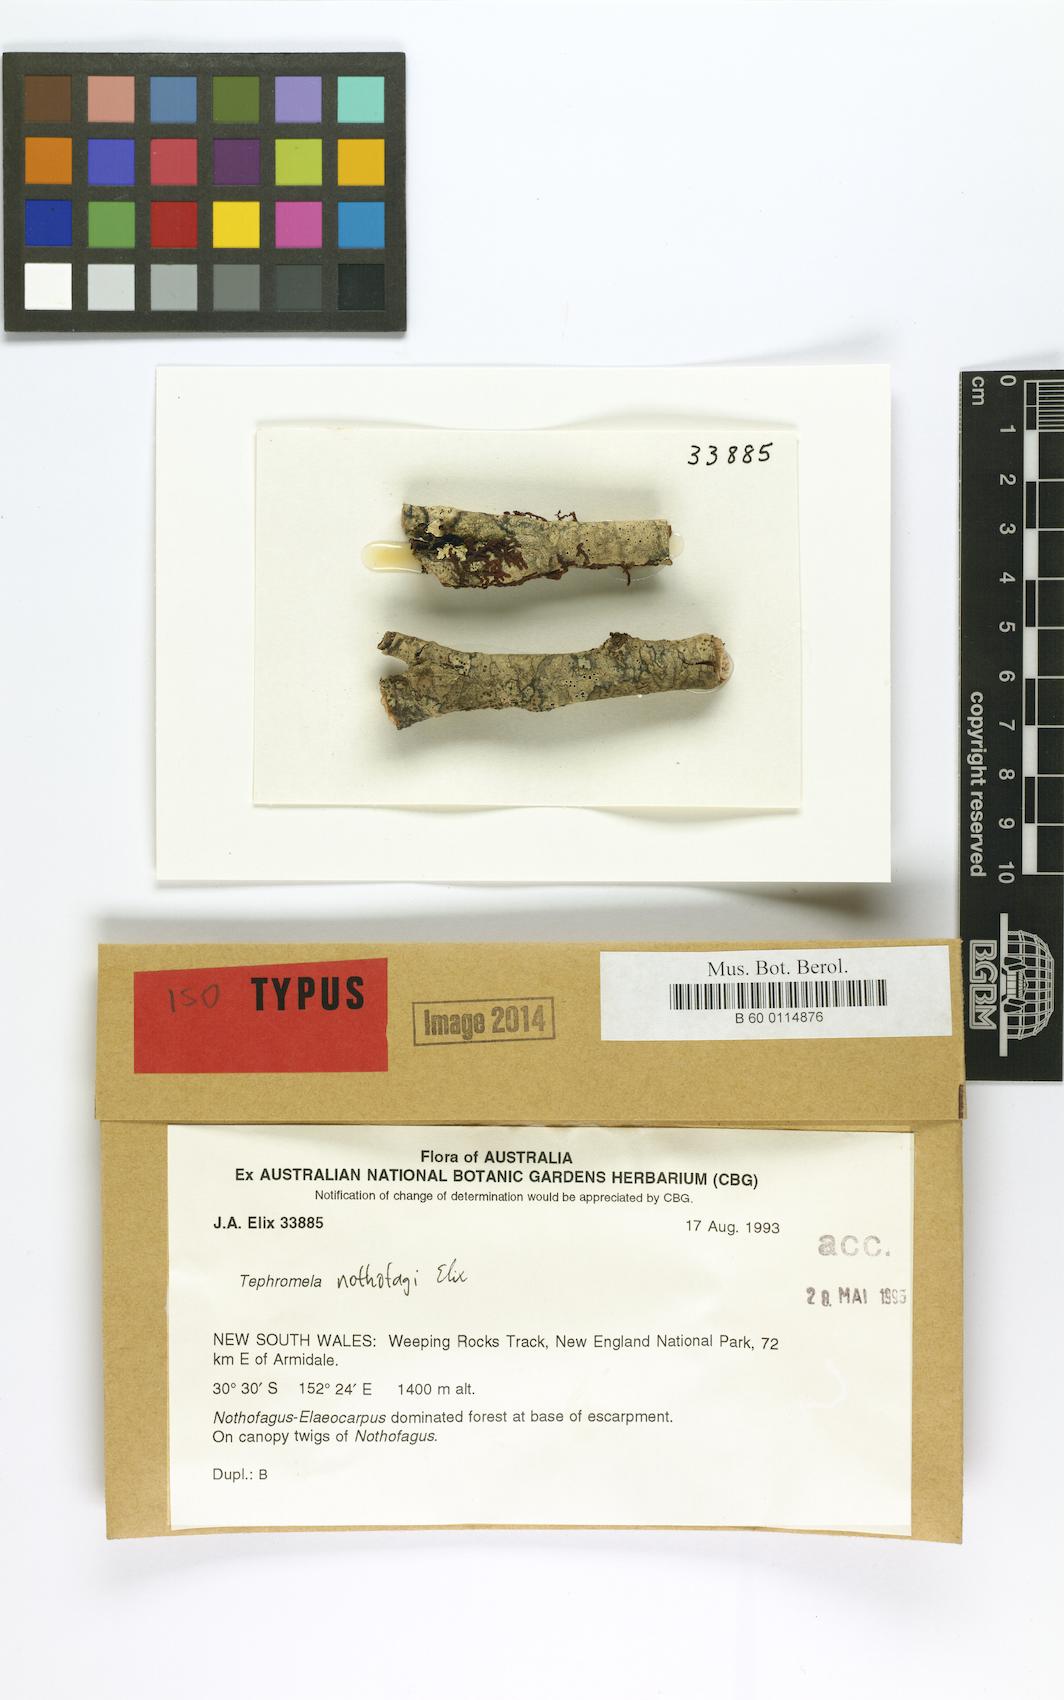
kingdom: Fungi
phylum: Ascomycota
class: Lecanoromycetes
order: Lecanorales
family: Tephromelataceae
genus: Tephromela
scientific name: Tephromela nothofagi
